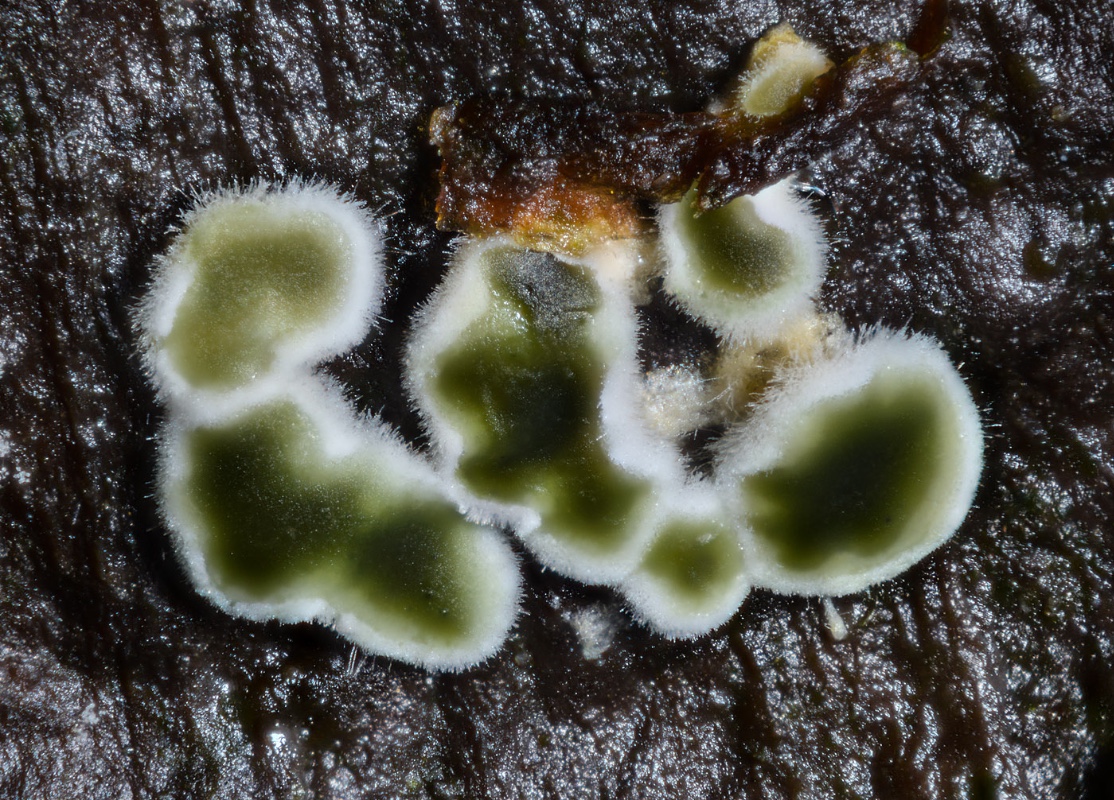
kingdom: Fungi
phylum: Ascomycota
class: Sordariomycetes
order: Hypocreales
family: Stachybotryaceae
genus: Myrothecium
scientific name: Myrothecium inundatum
